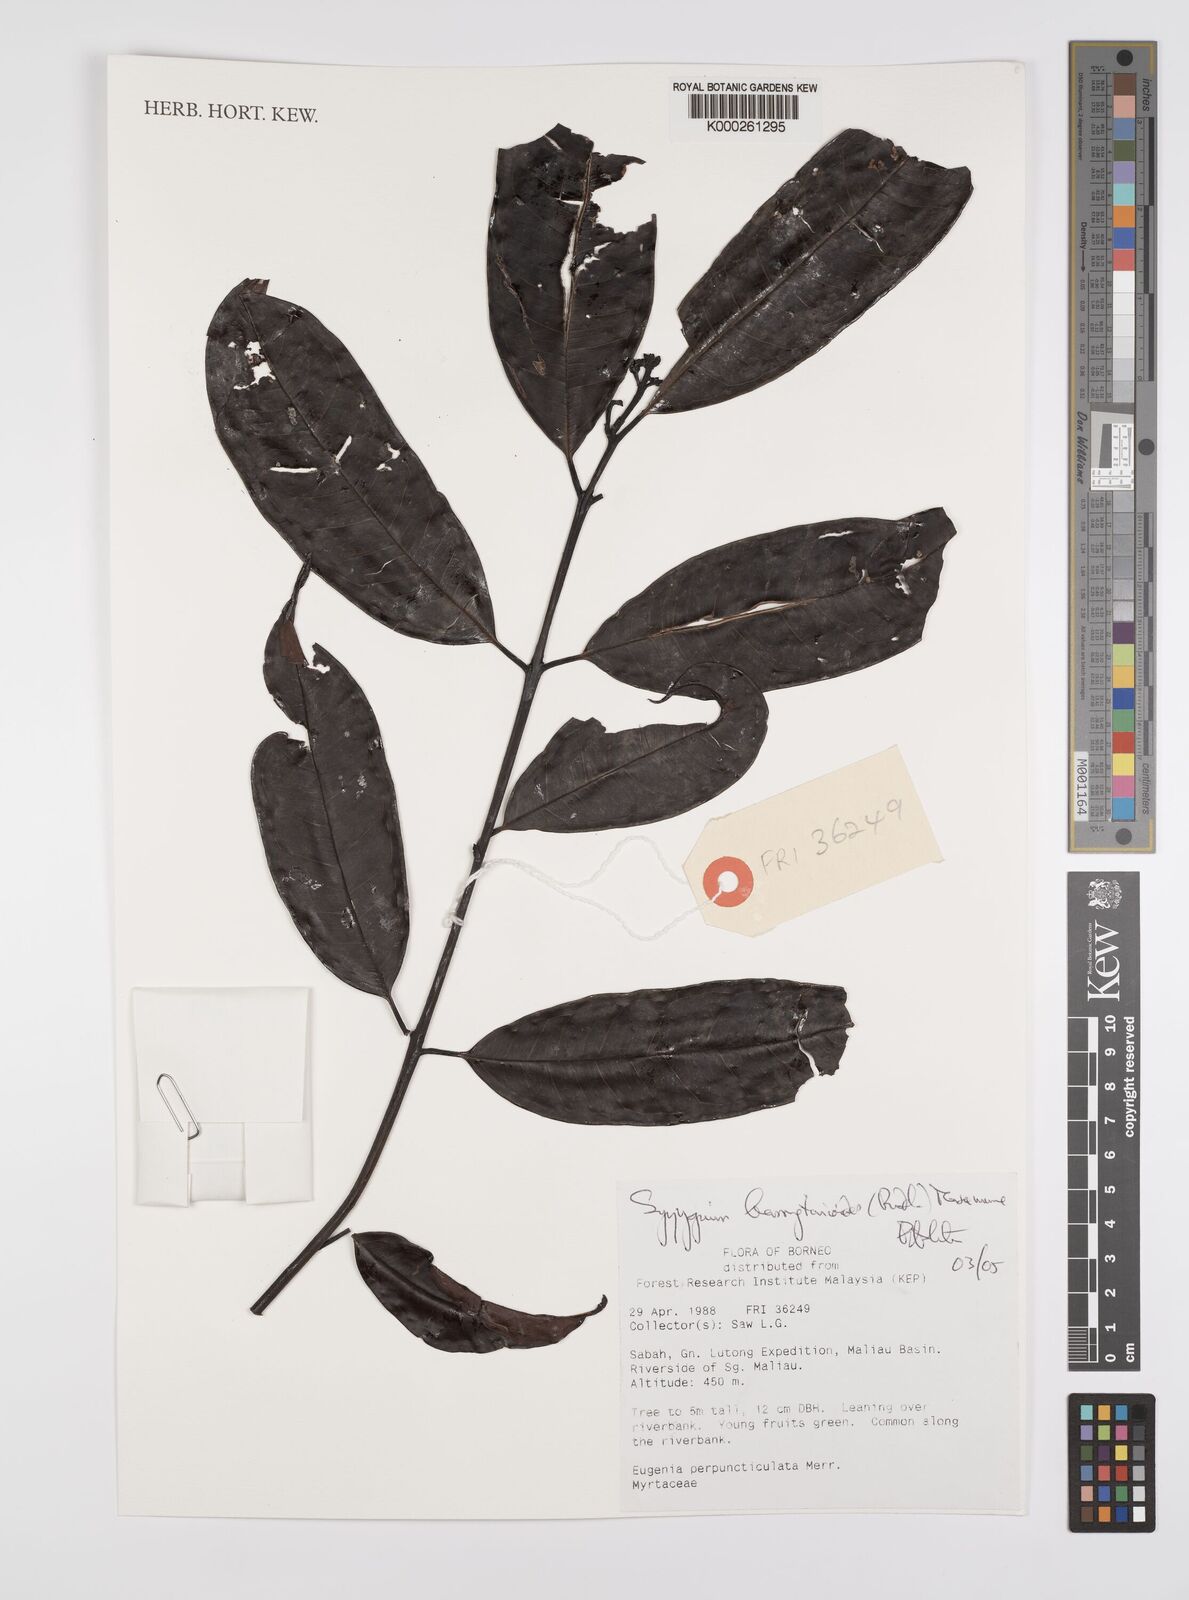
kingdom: Plantae
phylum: Tracheophyta
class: Magnoliopsida
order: Myrtales
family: Myrtaceae
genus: Syzygium
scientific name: Syzygium
